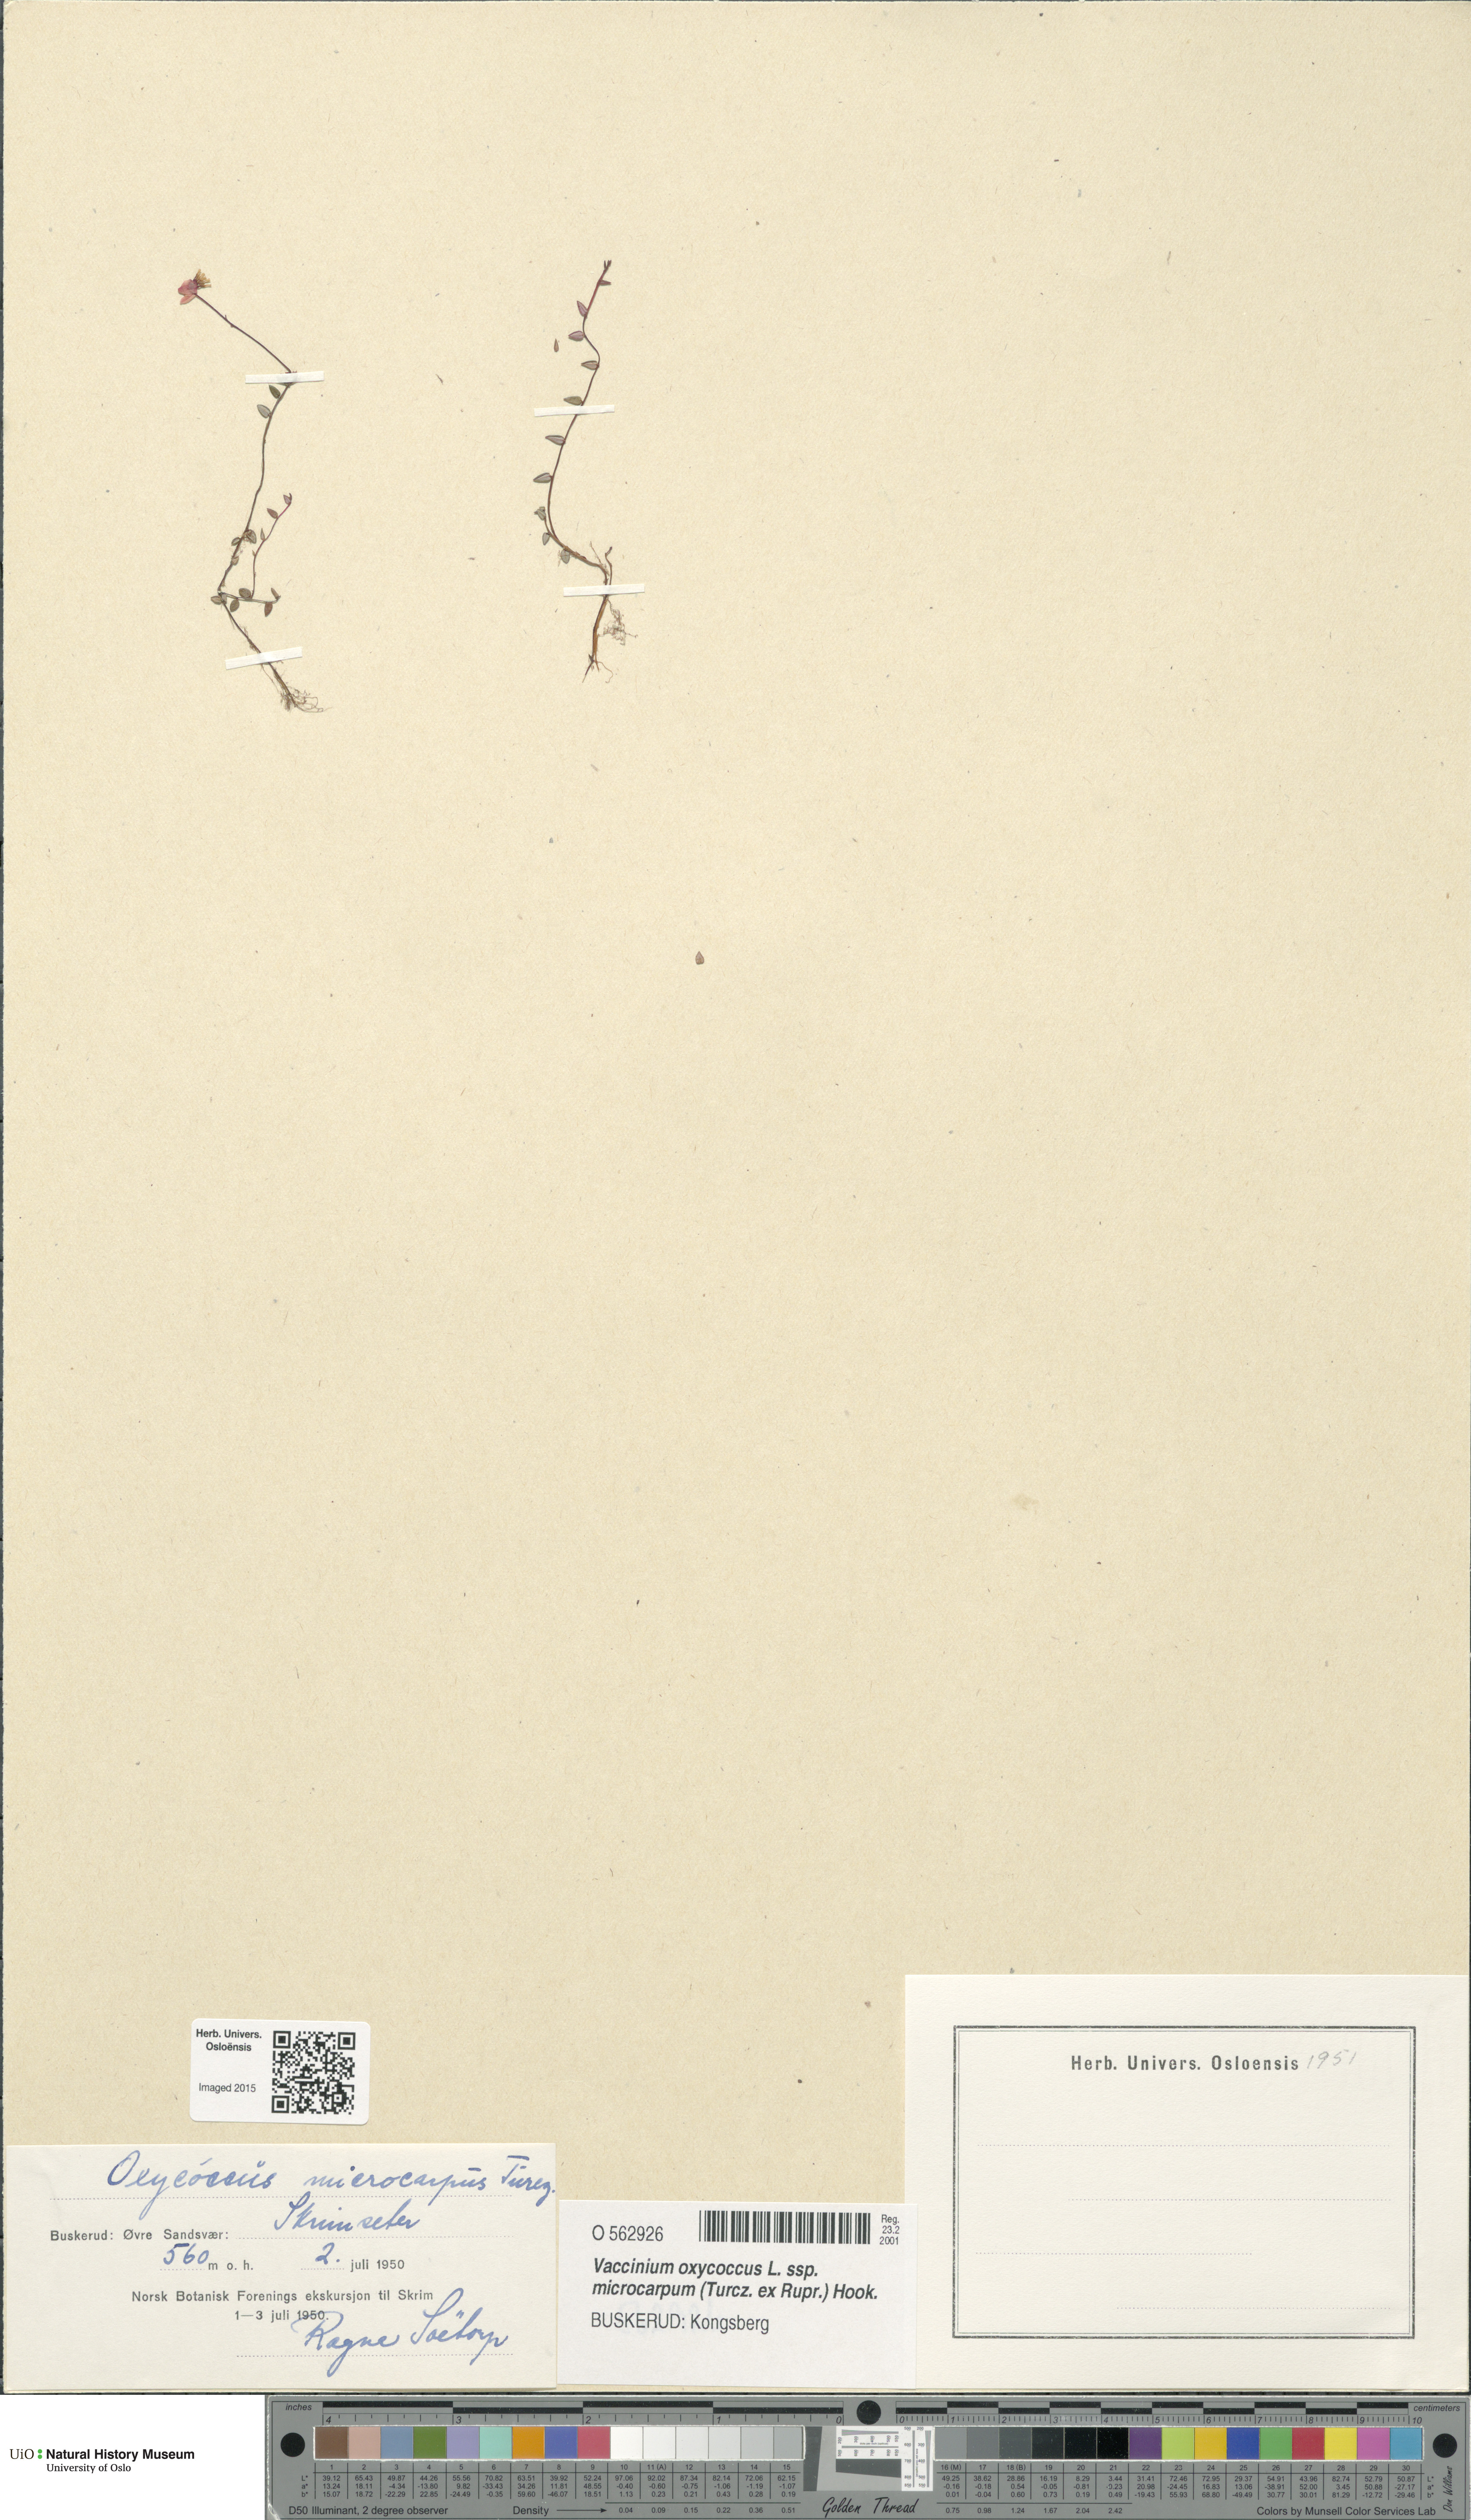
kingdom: Plantae
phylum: Tracheophyta
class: Magnoliopsida
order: Ericales
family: Ericaceae
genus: Vaccinium
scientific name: Vaccinium microcarpum
